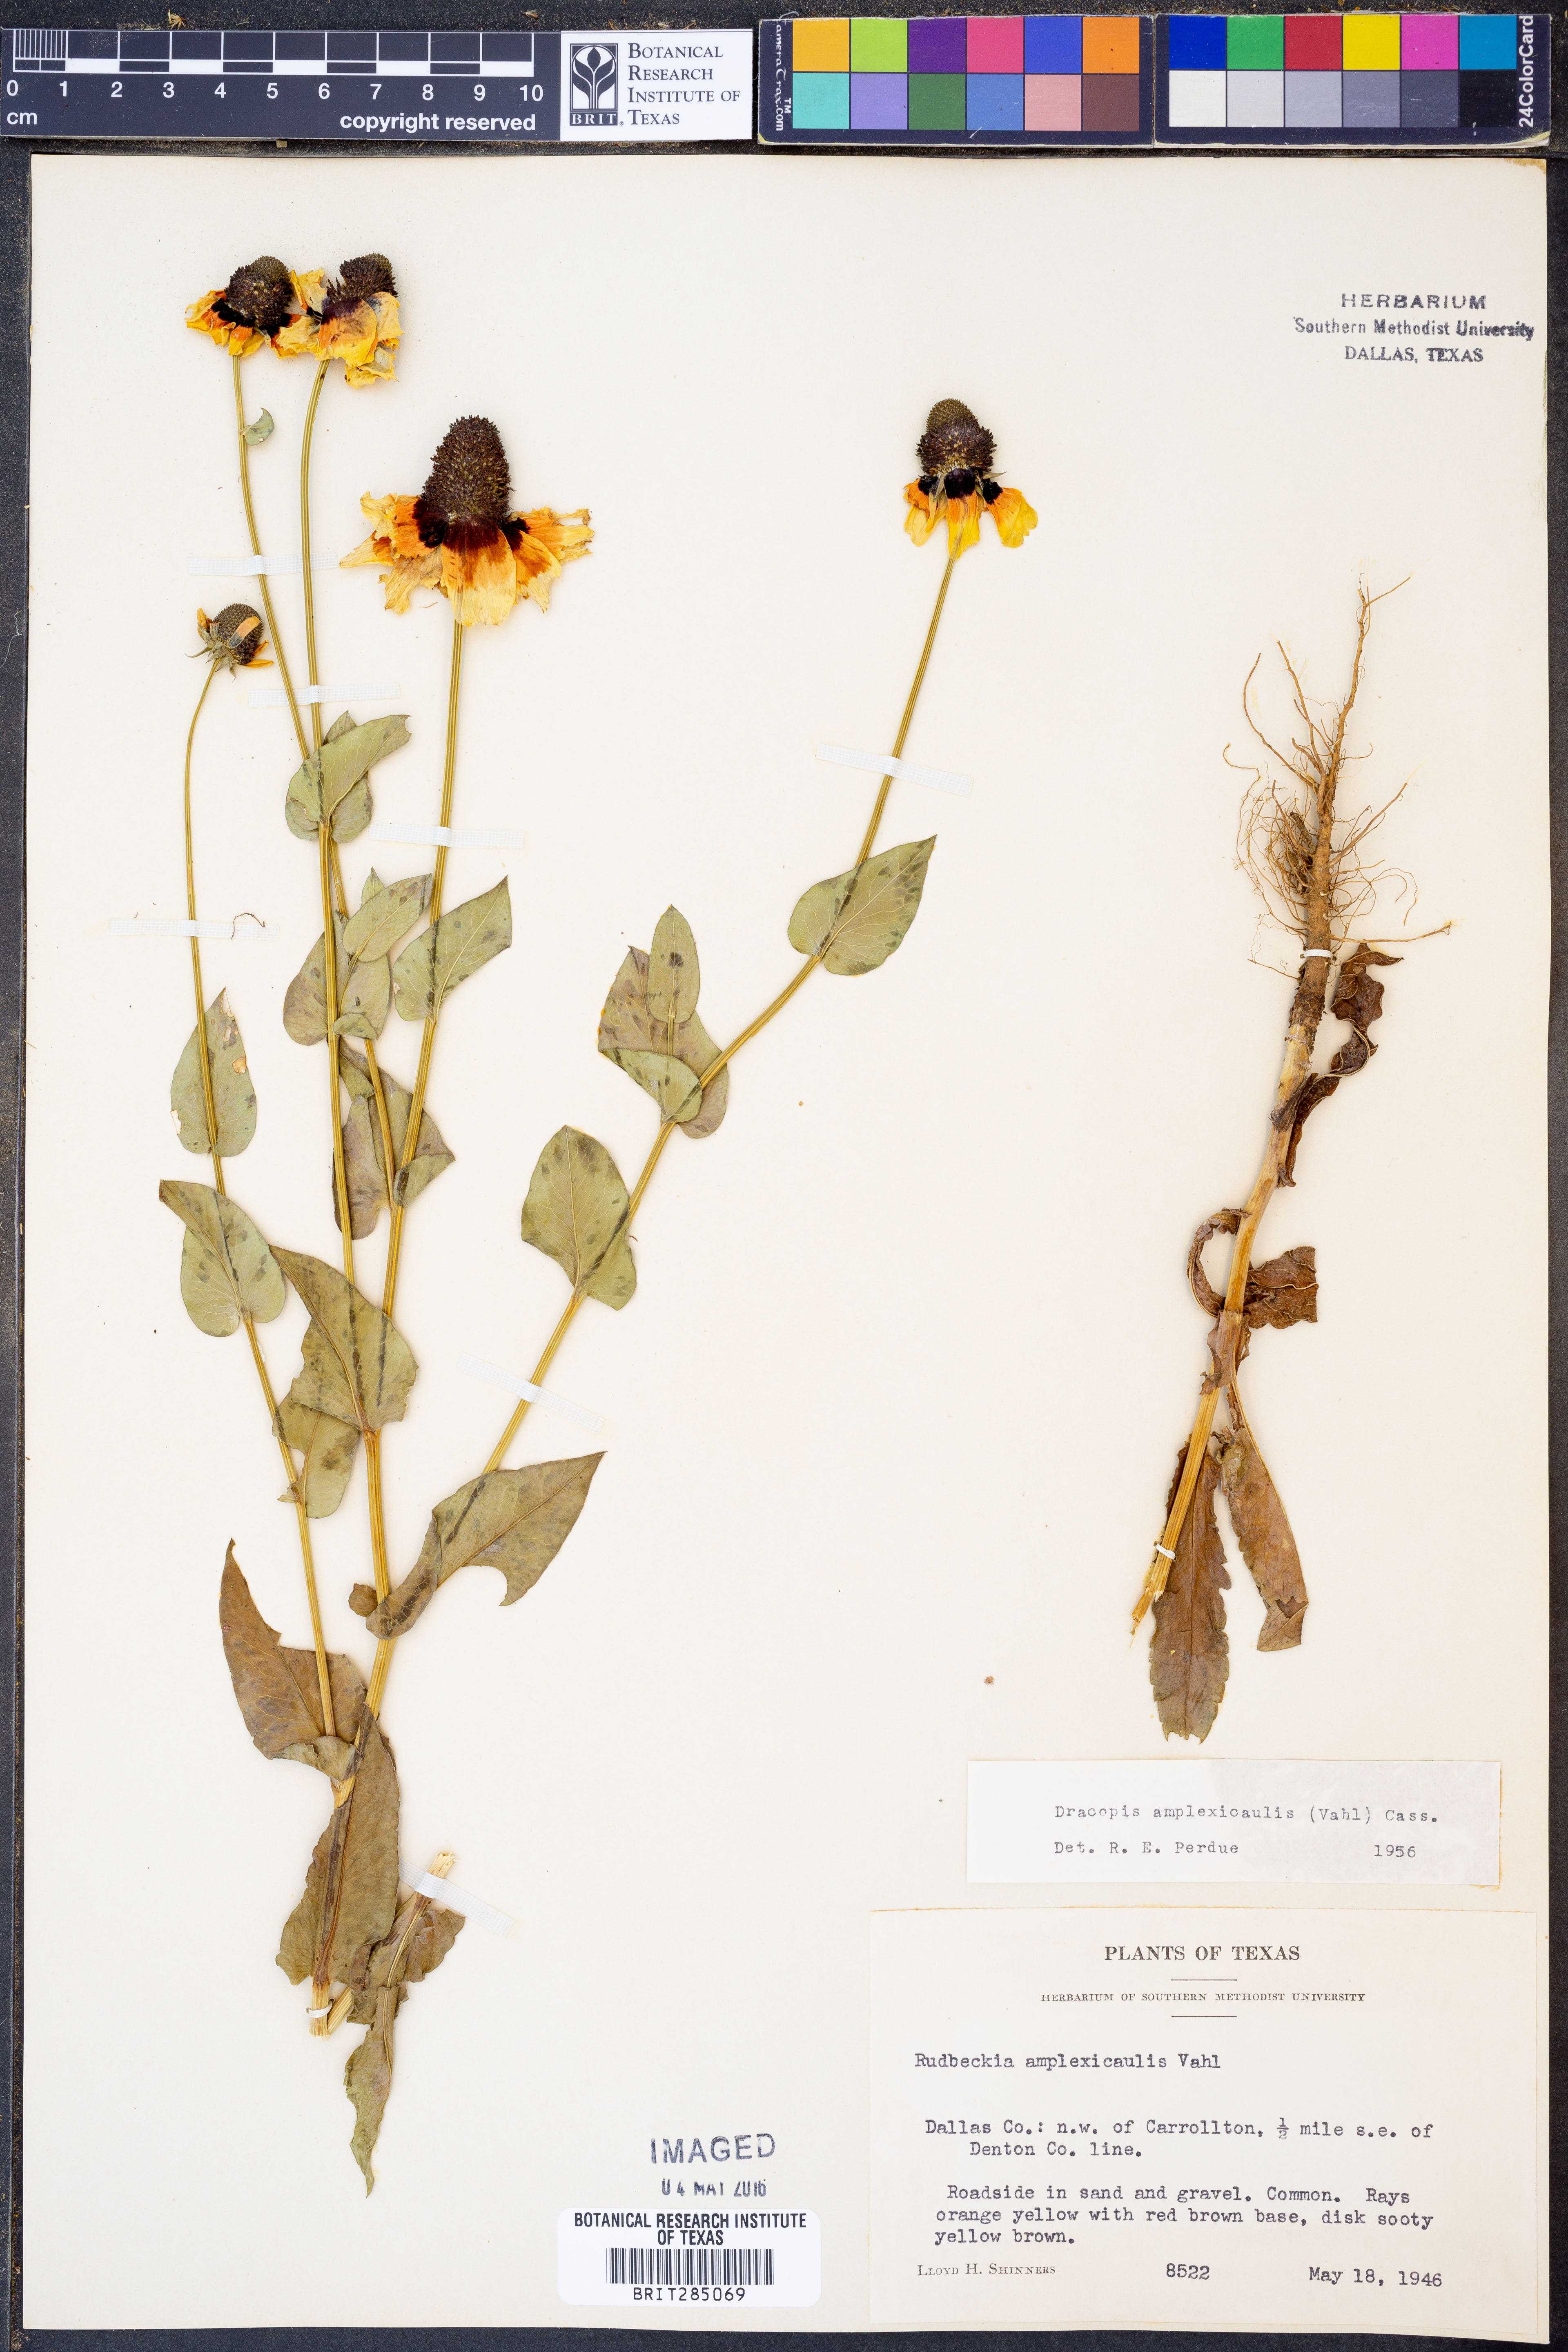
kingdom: Plantae
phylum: Tracheophyta
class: Magnoliopsida
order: Asterales
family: Asteraceae
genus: Rudbeckia
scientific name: Rudbeckia amplexicaulis
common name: Clasping-leaf coneflower
